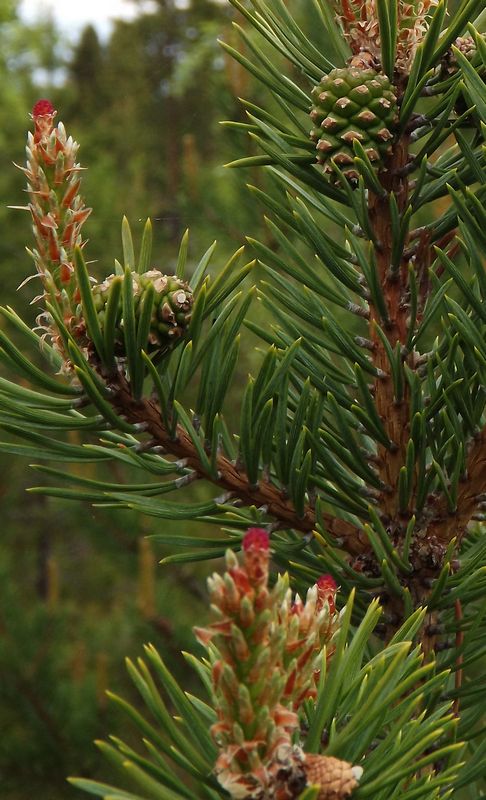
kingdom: Plantae
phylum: Tracheophyta
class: Pinopsida
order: Pinales
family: Pinaceae
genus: Pinus
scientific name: Pinus sylvestris
